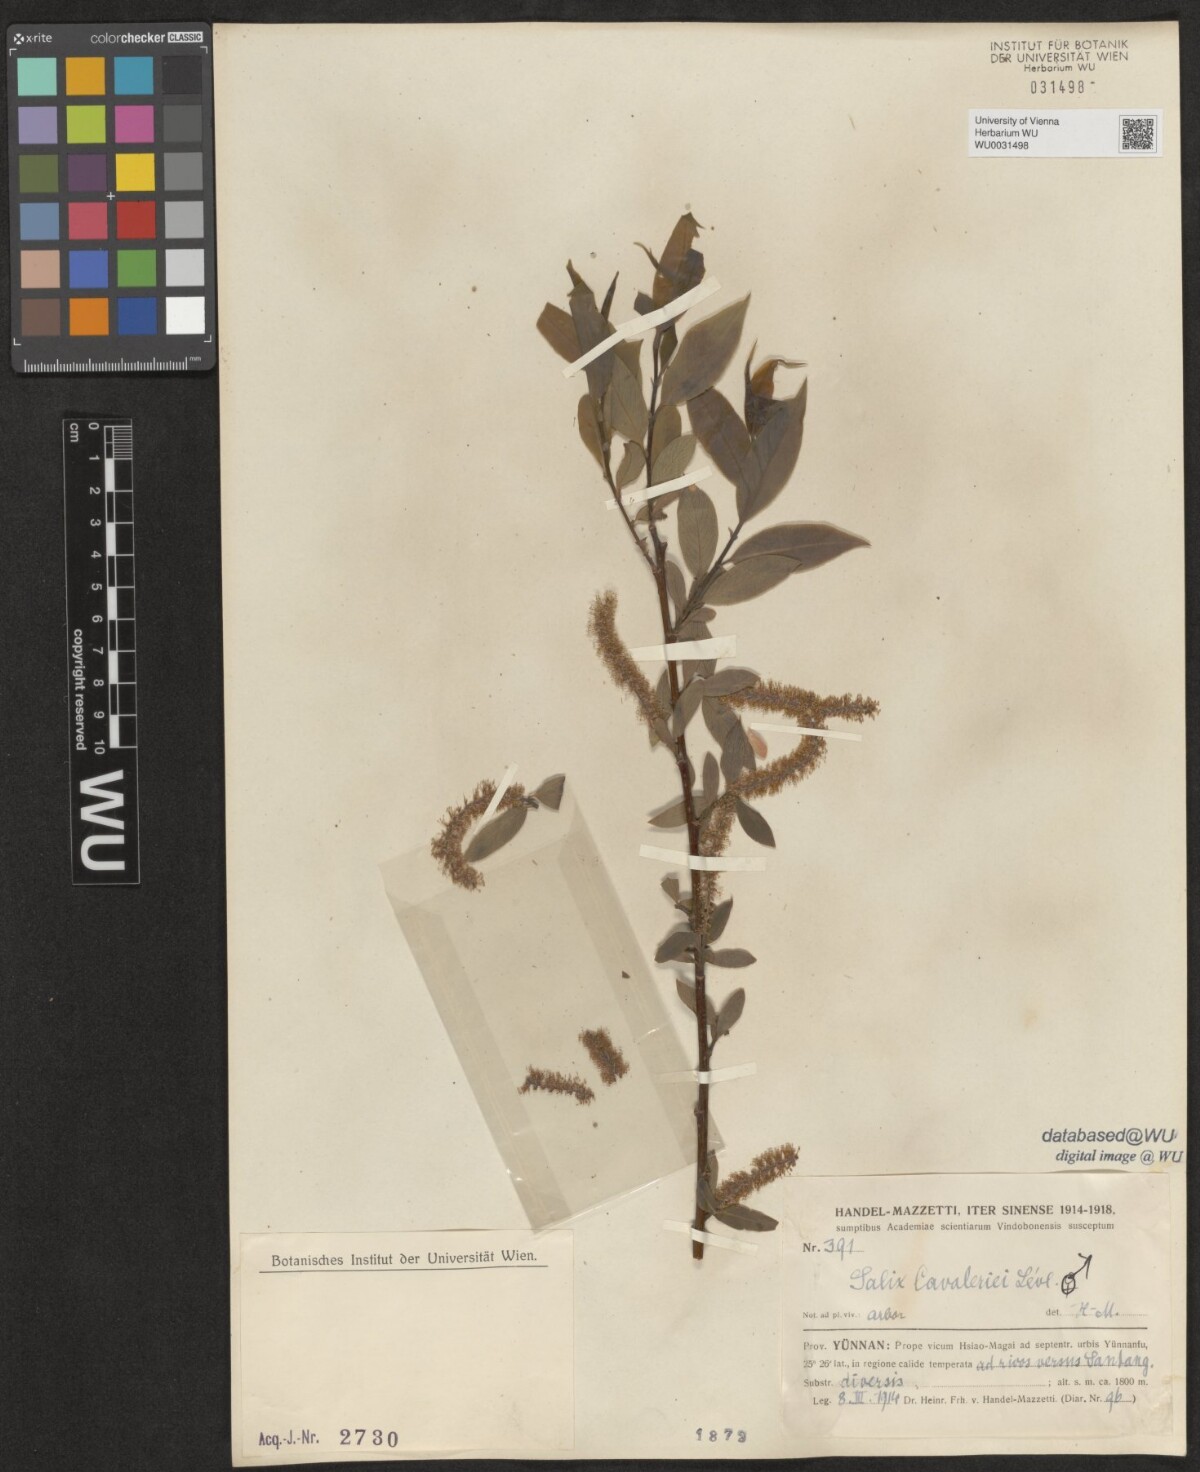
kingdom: Plantae
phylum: Tracheophyta
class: Magnoliopsida
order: Malpighiales
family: Salicaceae
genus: Salix
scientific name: Salix cavaleriei
